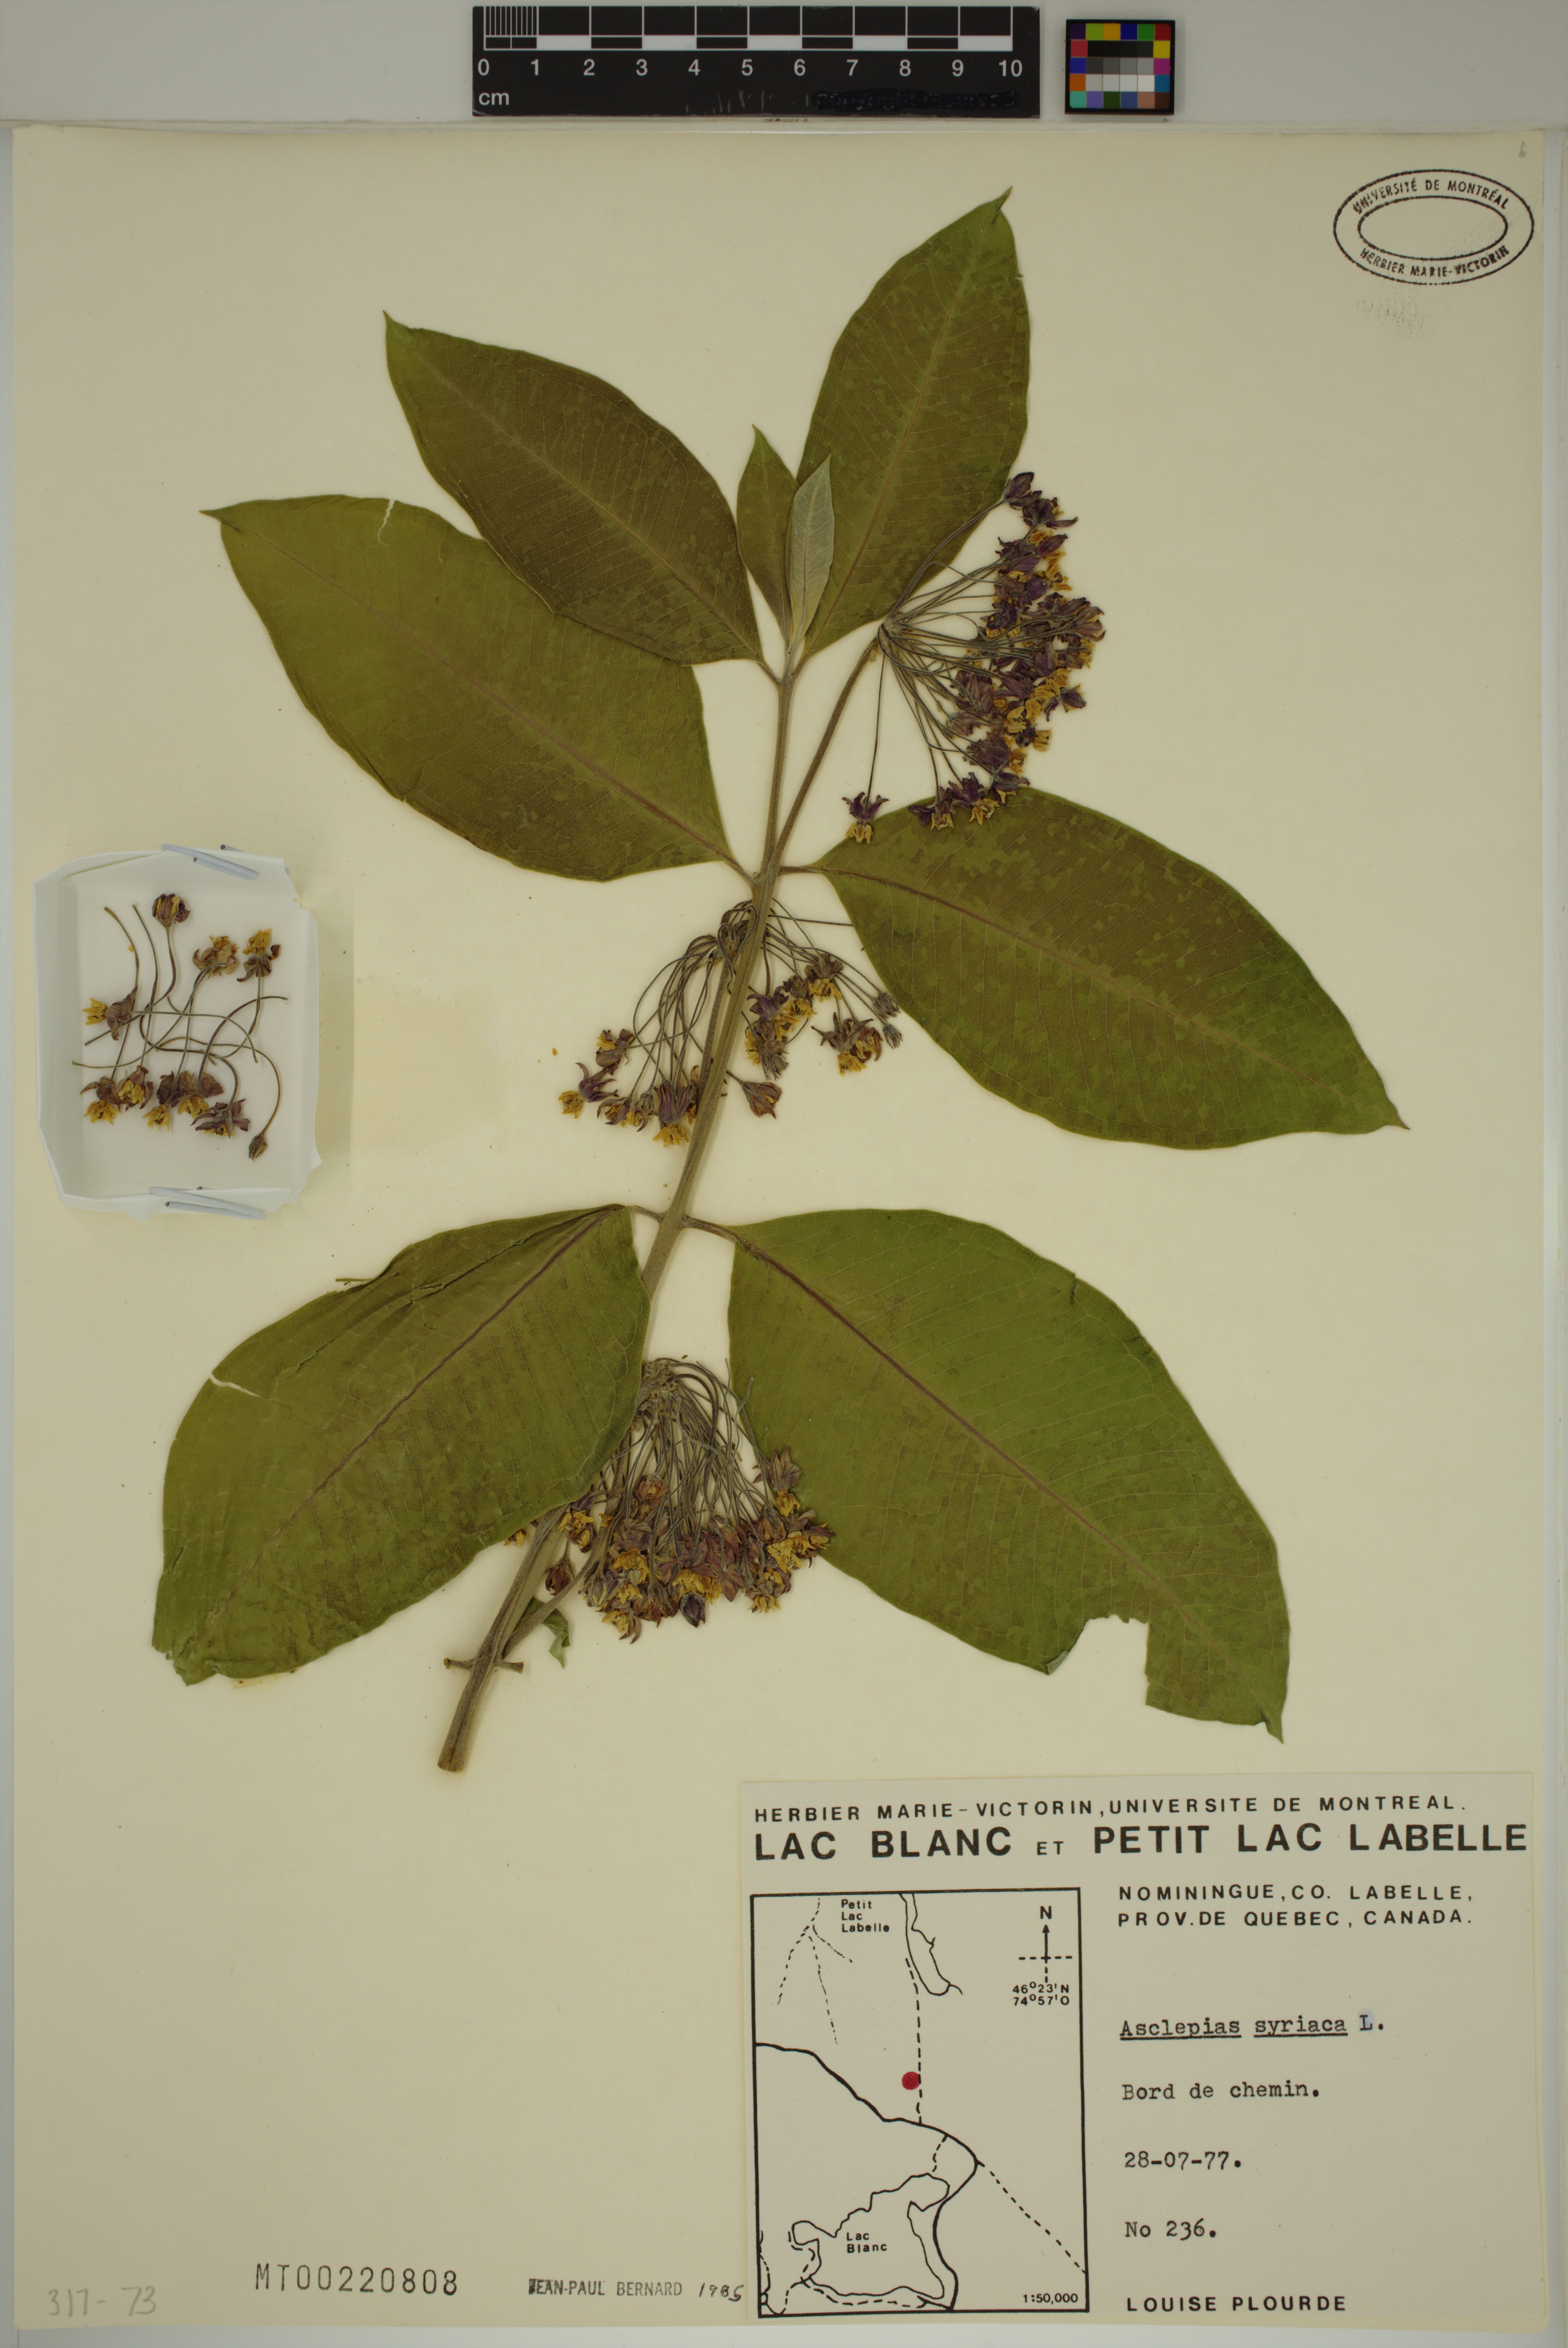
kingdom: Plantae
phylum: Tracheophyta
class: Magnoliopsida
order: Gentianales
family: Apocynaceae
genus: Asclepias
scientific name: Asclepias syriaca
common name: Common milkweed
